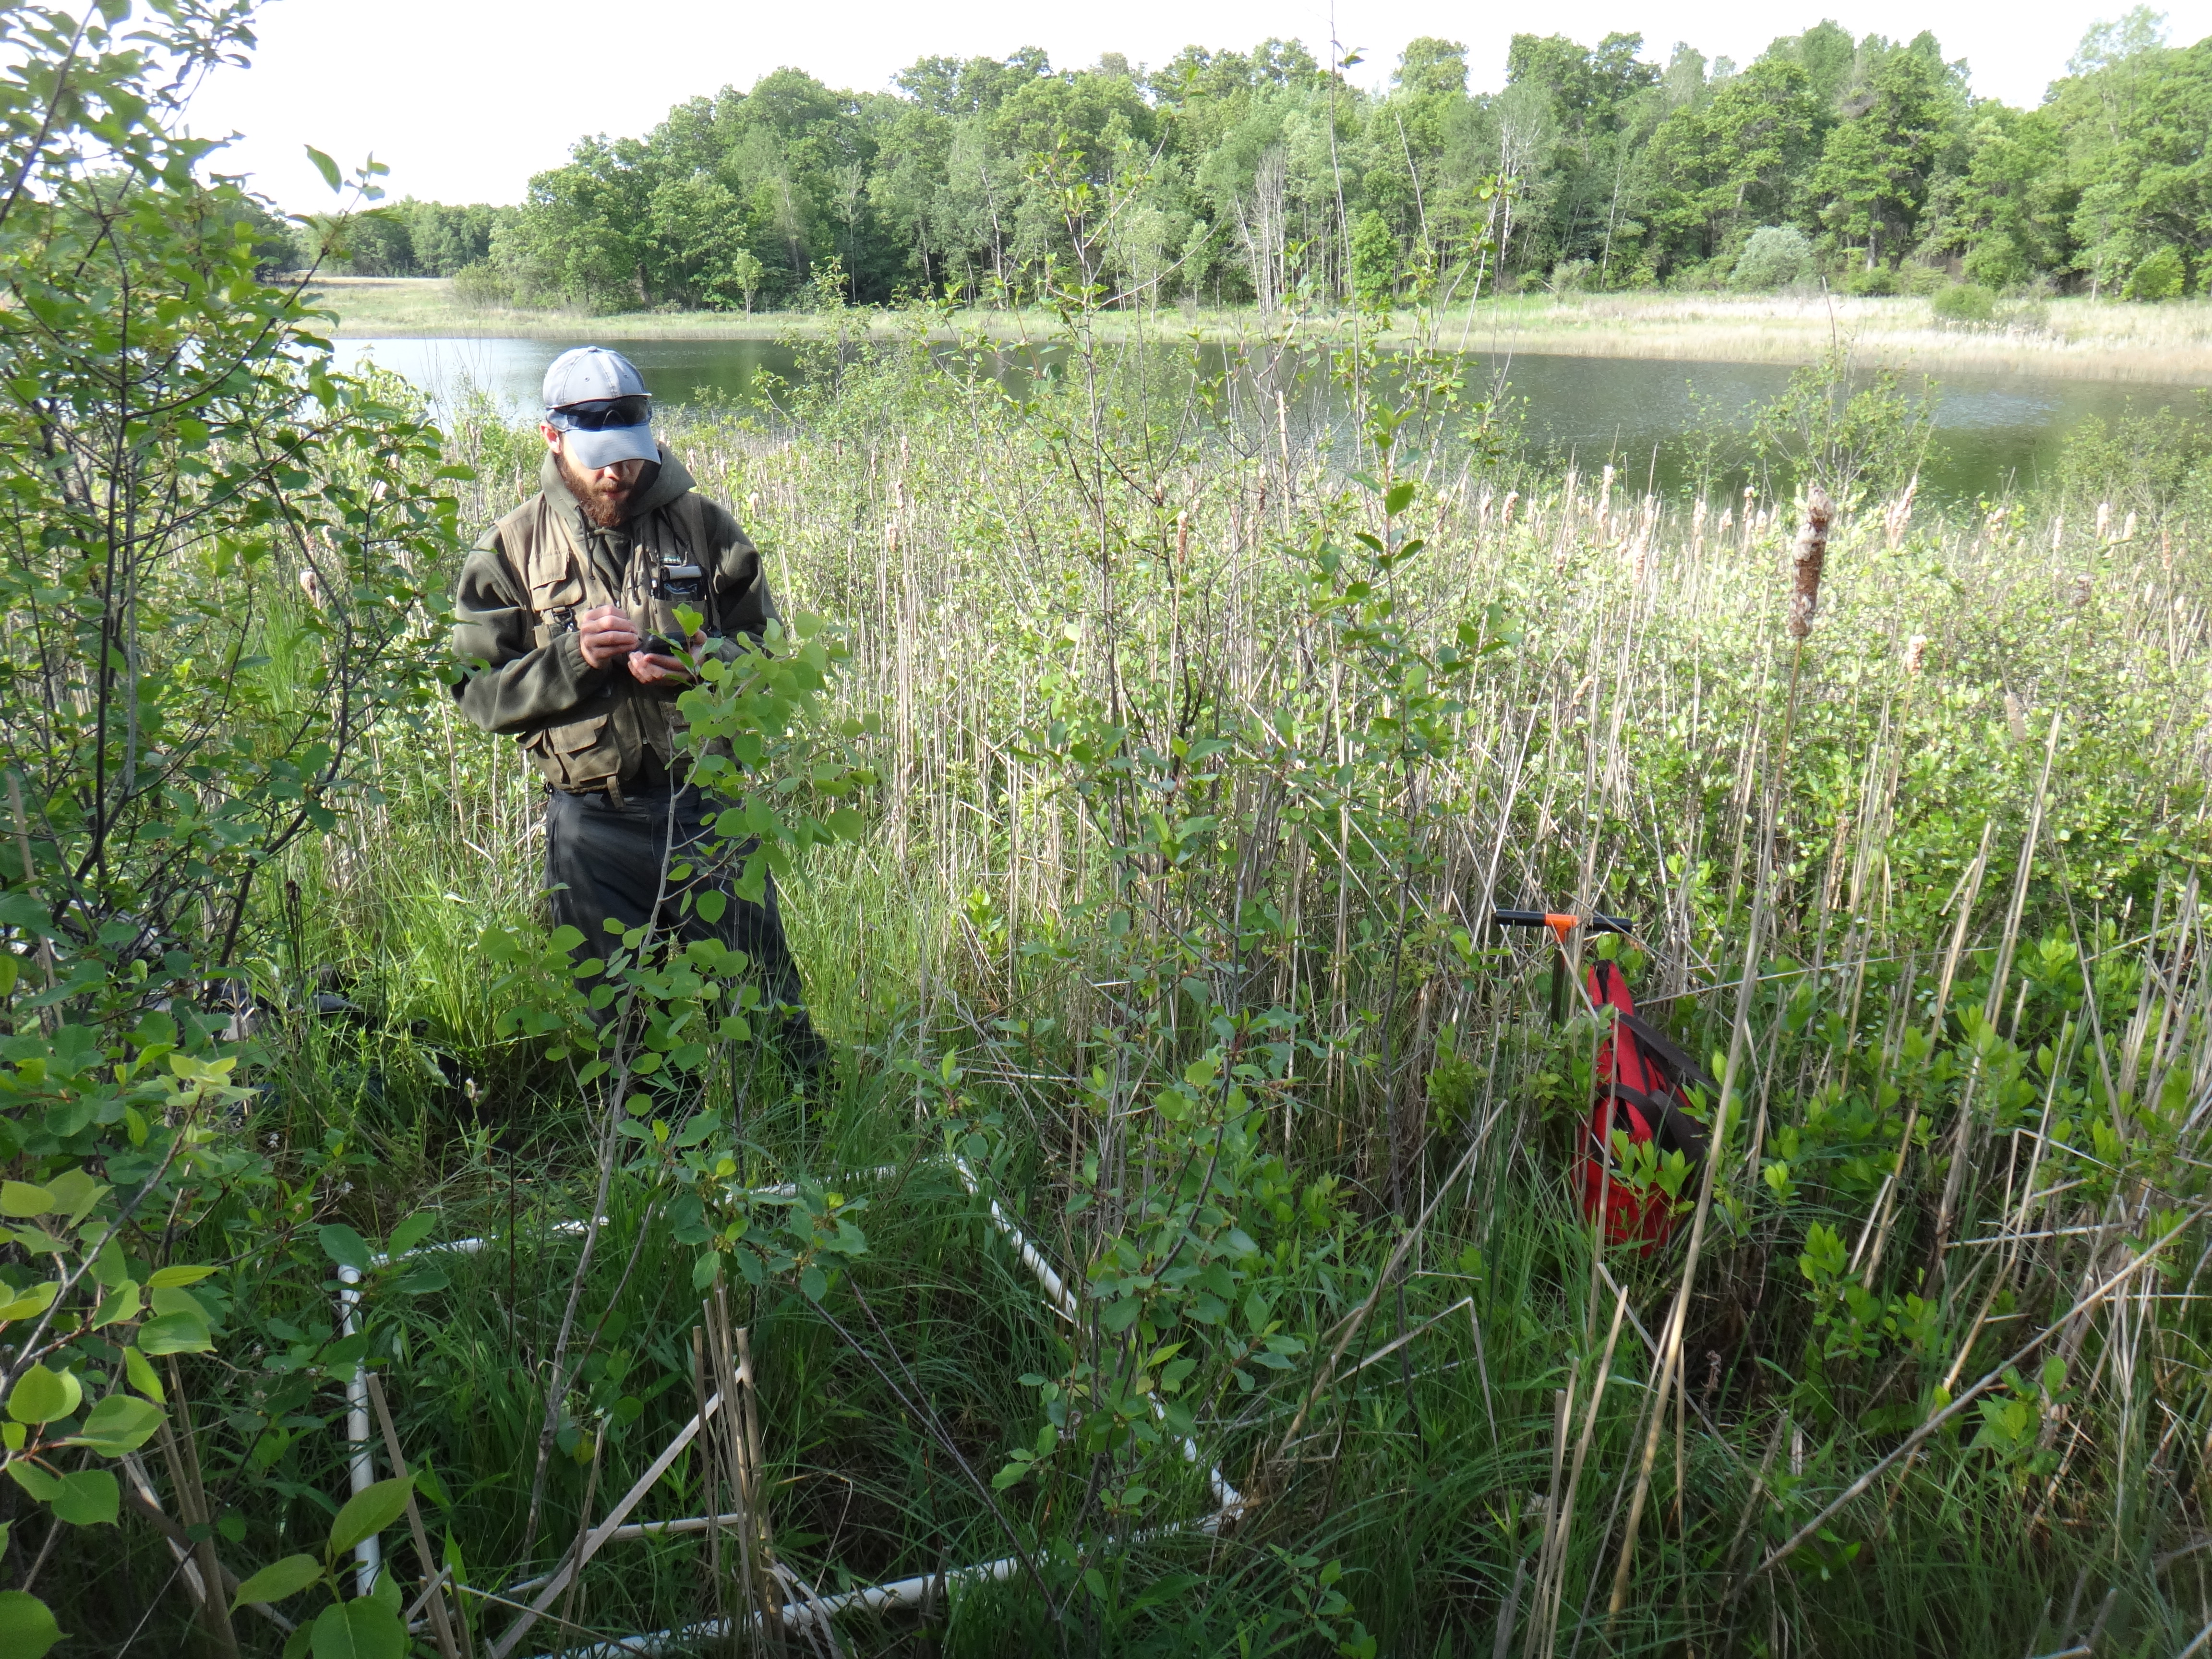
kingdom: Plantae
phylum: Tracheophyta
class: Magnoliopsida
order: Rosales
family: Rhamnaceae
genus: Frangula
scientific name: Frangula alnus
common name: Alder buckthorn
